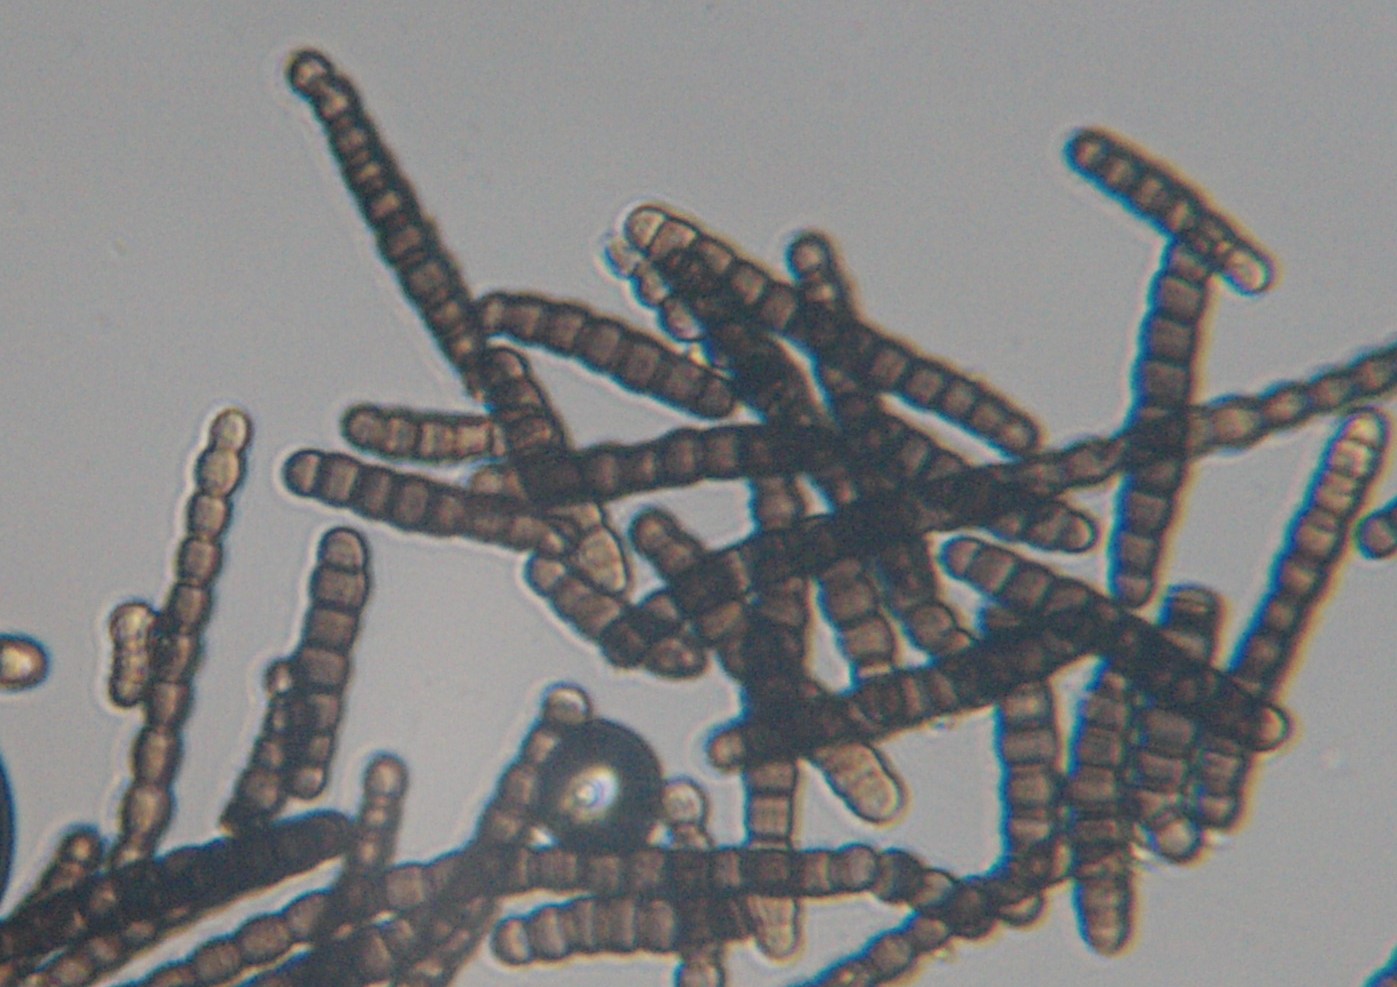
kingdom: Fungi
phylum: Ascomycota
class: Dothideomycetes
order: Pleosporales
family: Torulaceae
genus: Torula
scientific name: Torula herbarum
